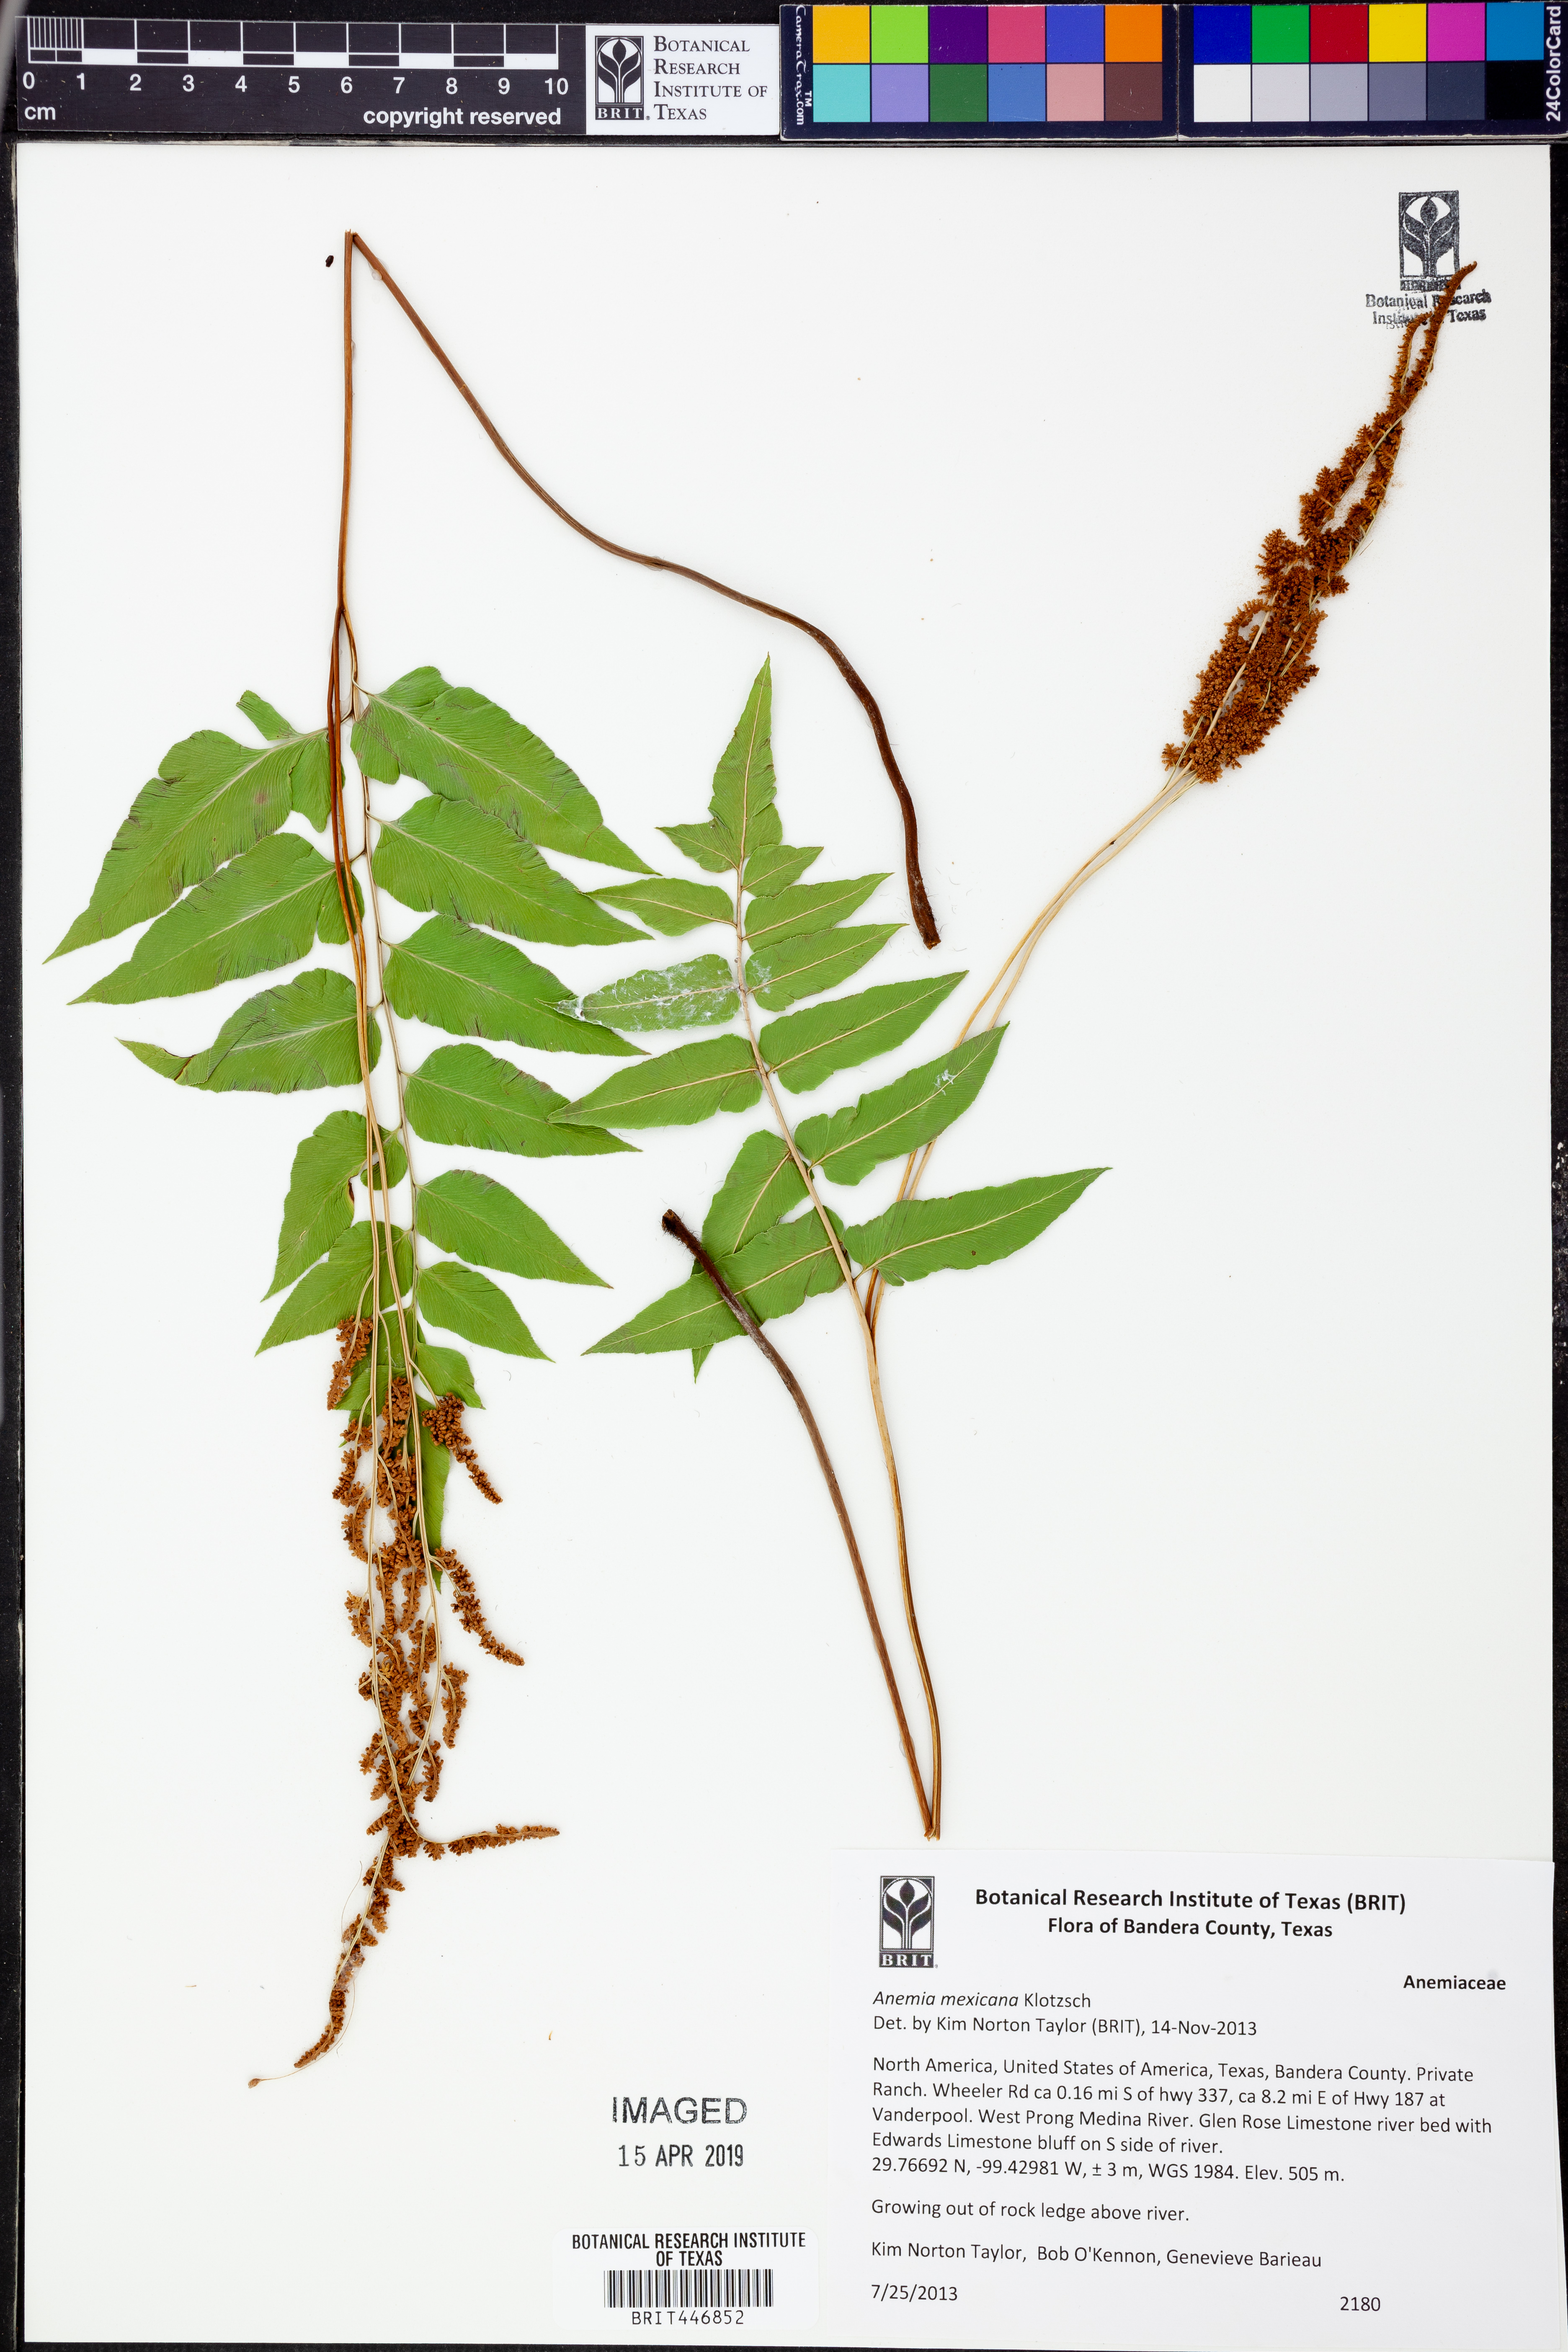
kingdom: Plantae
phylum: Tracheophyta
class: Polypodiopsida
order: Schizaeales
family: Anemiaceae
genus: Anemia
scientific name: Anemia mexicana
